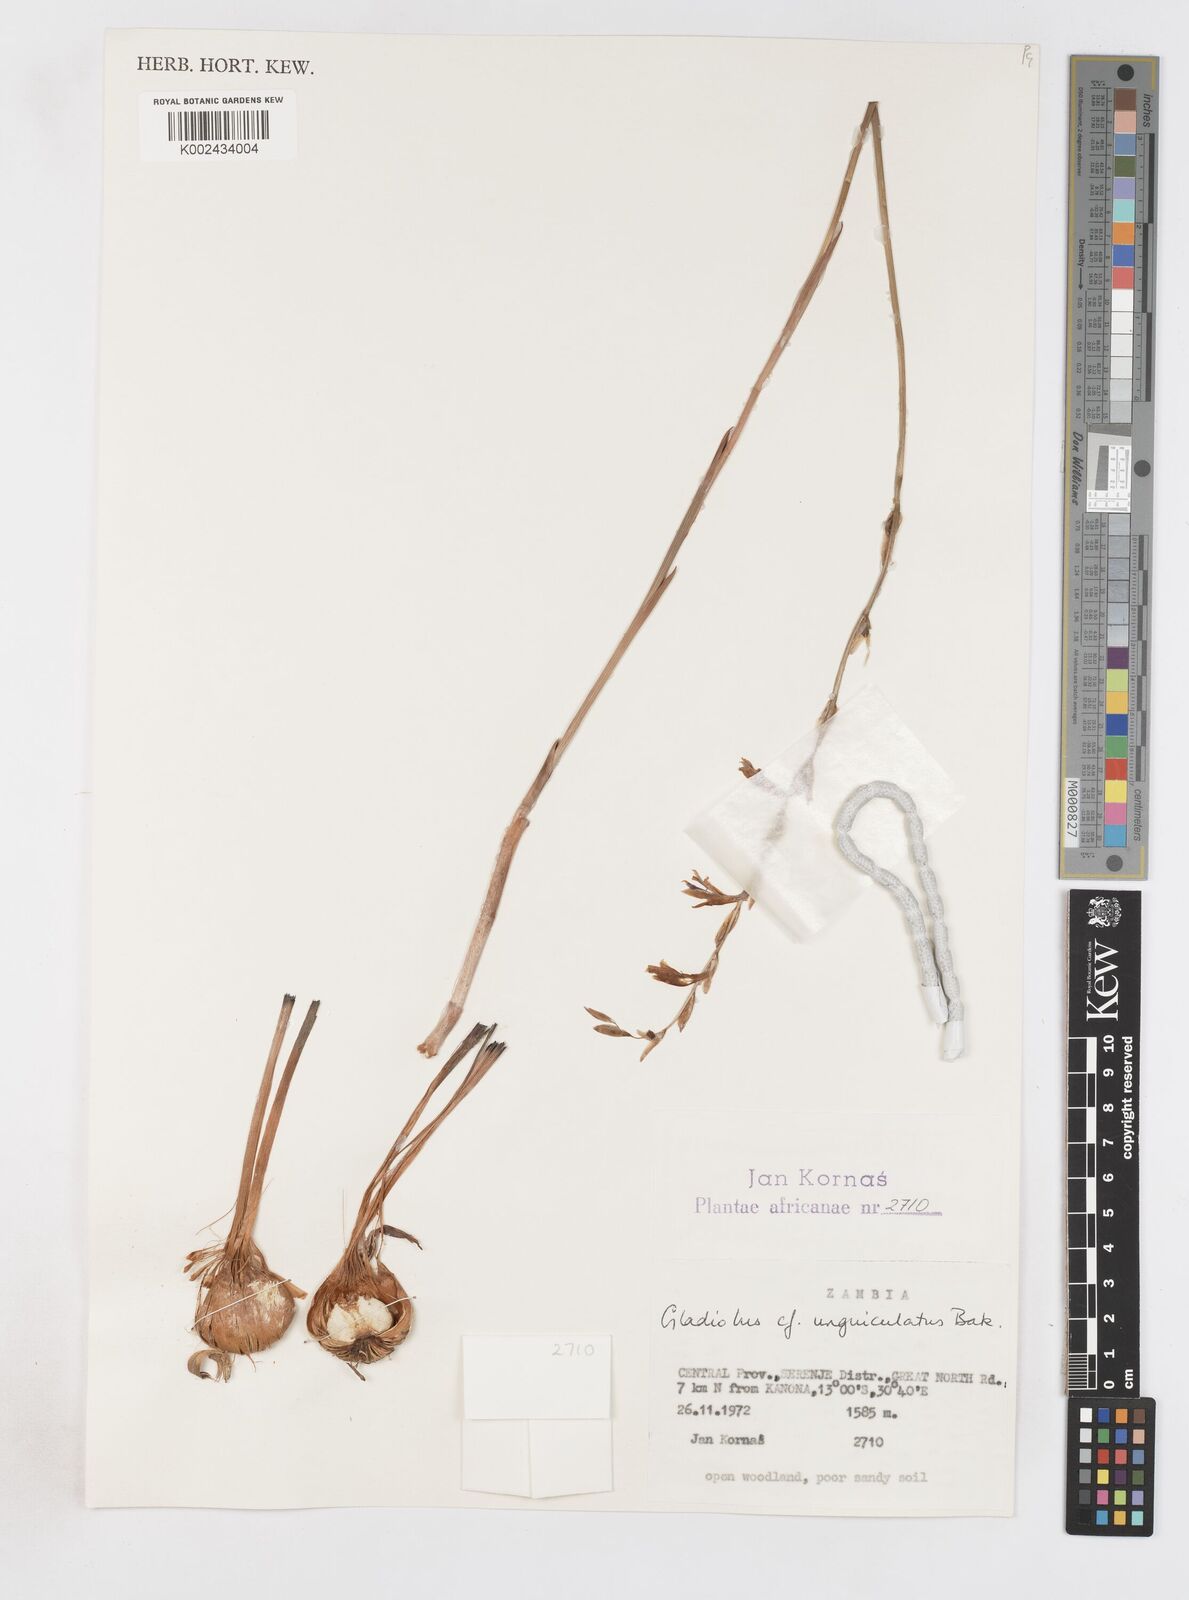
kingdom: Plantae
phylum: Tracheophyta
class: Liliopsida
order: Asparagales
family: Iridaceae
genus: Gladiolus
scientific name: Gladiolus atropurpureus
